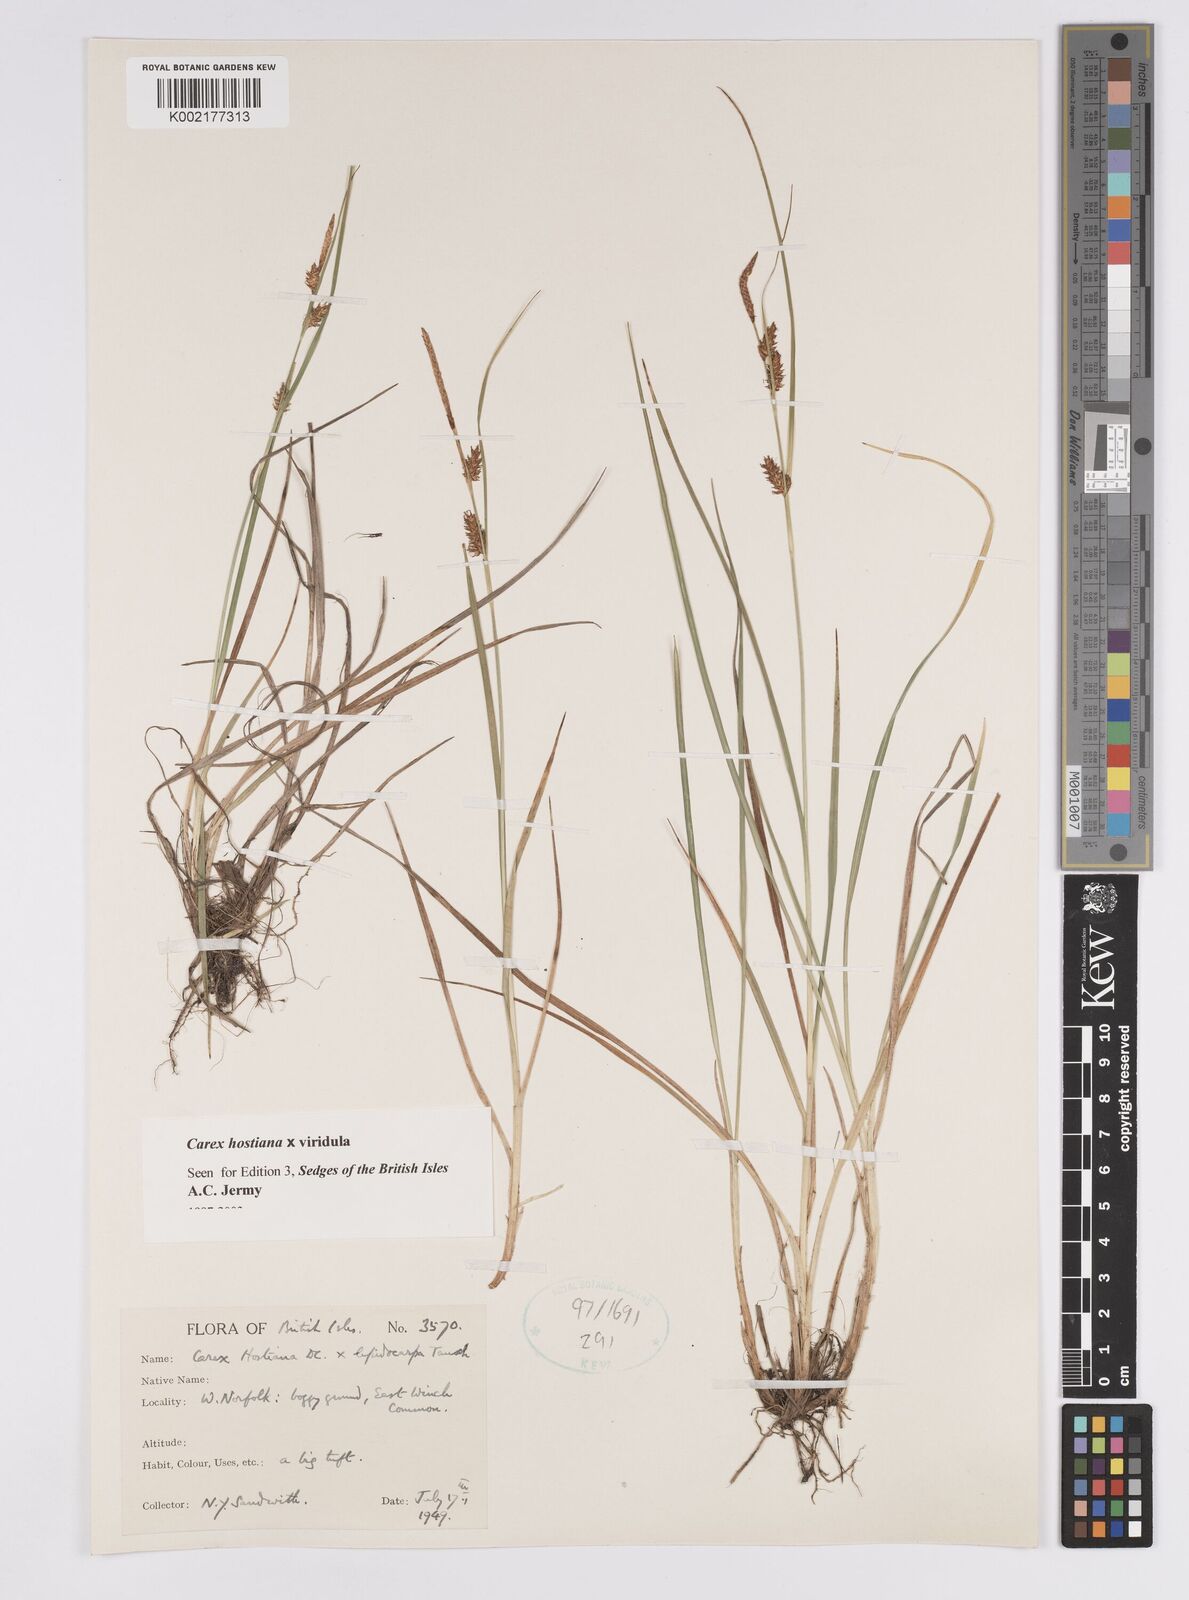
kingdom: Plantae
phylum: Tracheophyta
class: Liliopsida
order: Poales
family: Cyperaceae
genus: Carex
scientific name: Carex hostiana
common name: Tawny sedge
